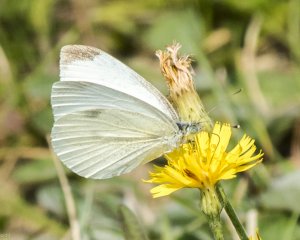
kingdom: Animalia
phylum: Arthropoda
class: Insecta
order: Lepidoptera
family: Pieridae
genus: Pieris
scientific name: Pieris rapae
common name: Cabbage White
